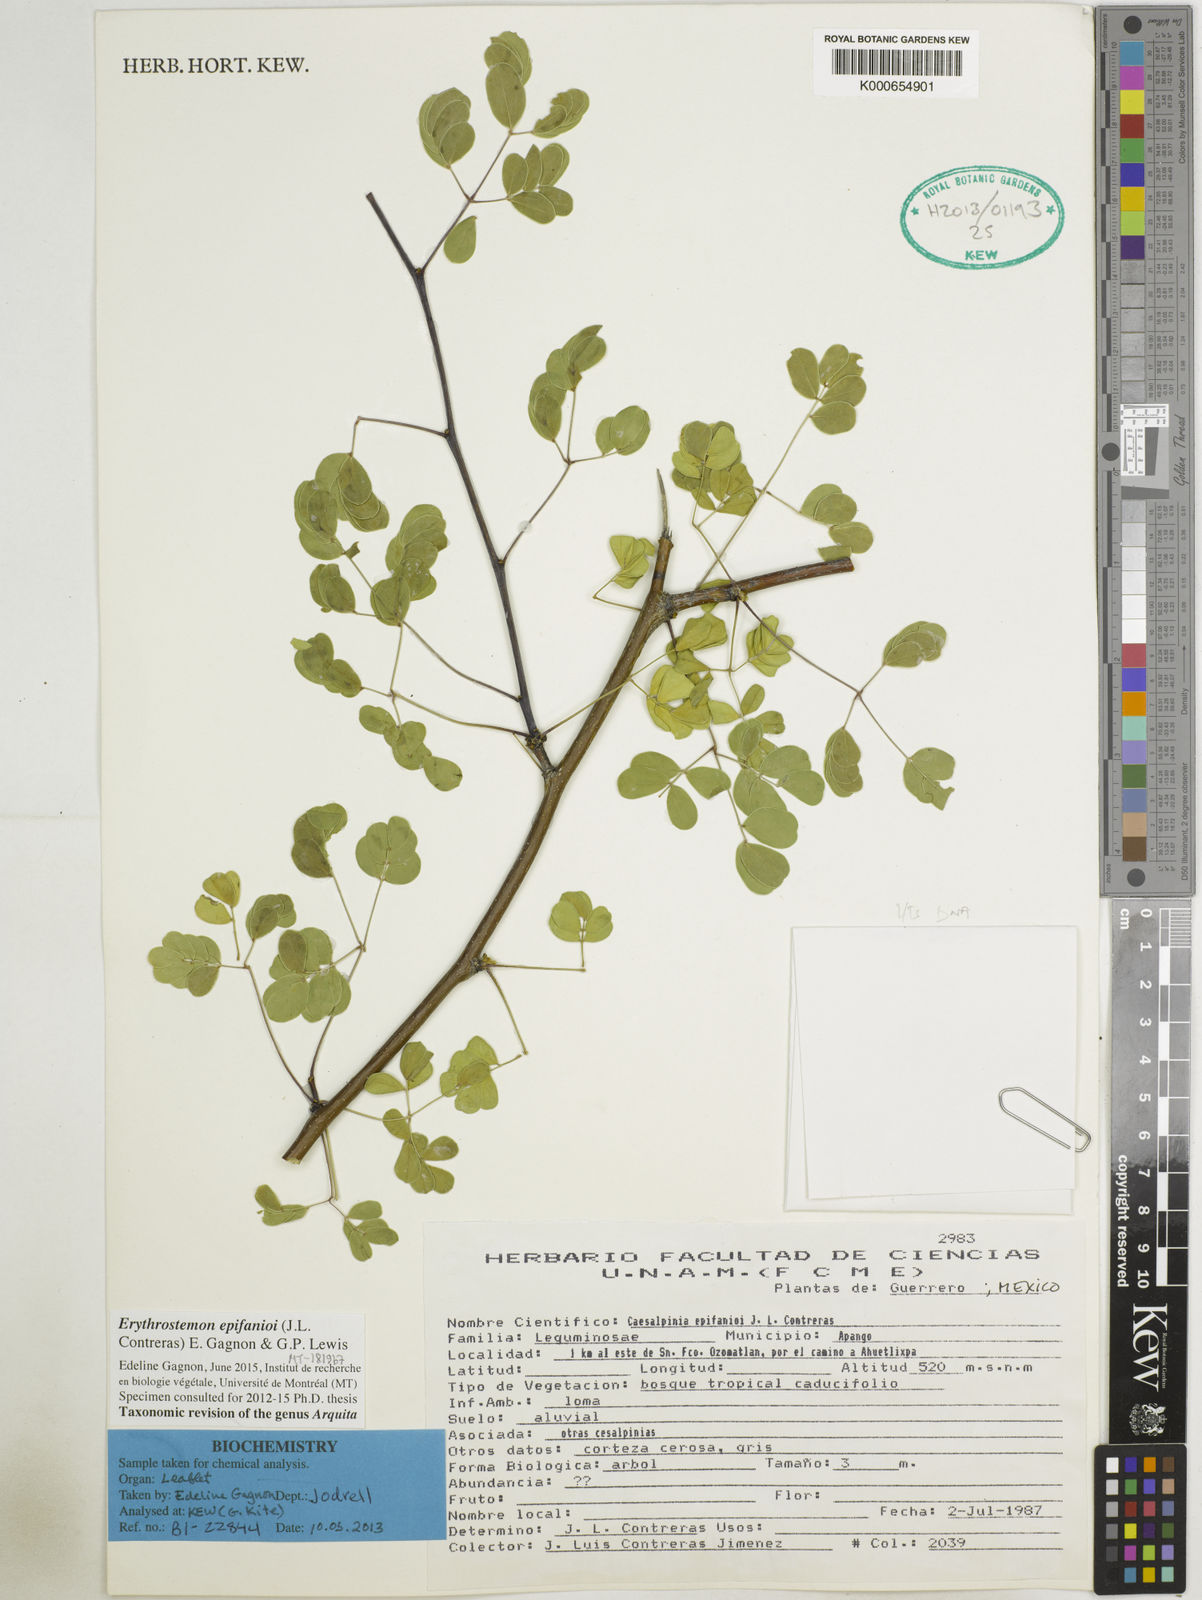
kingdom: Plantae
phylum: Tracheophyta
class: Magnoliopsida
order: Fabales
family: Fabaceae
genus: Erythrostemon
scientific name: Erythrostemon epifanioi
